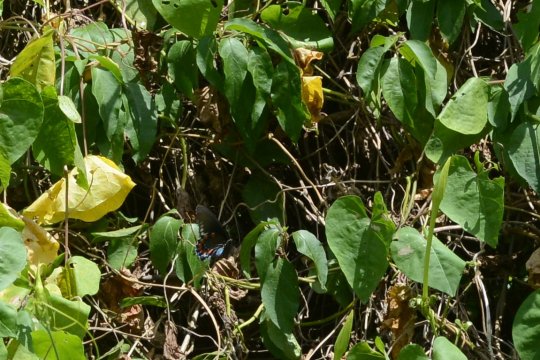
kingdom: Animalia
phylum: Arthropoda
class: Insecta
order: Lepidoptera
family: Papilionidae
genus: Battus
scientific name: Battus philenor
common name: Pipevine Swallowtail
